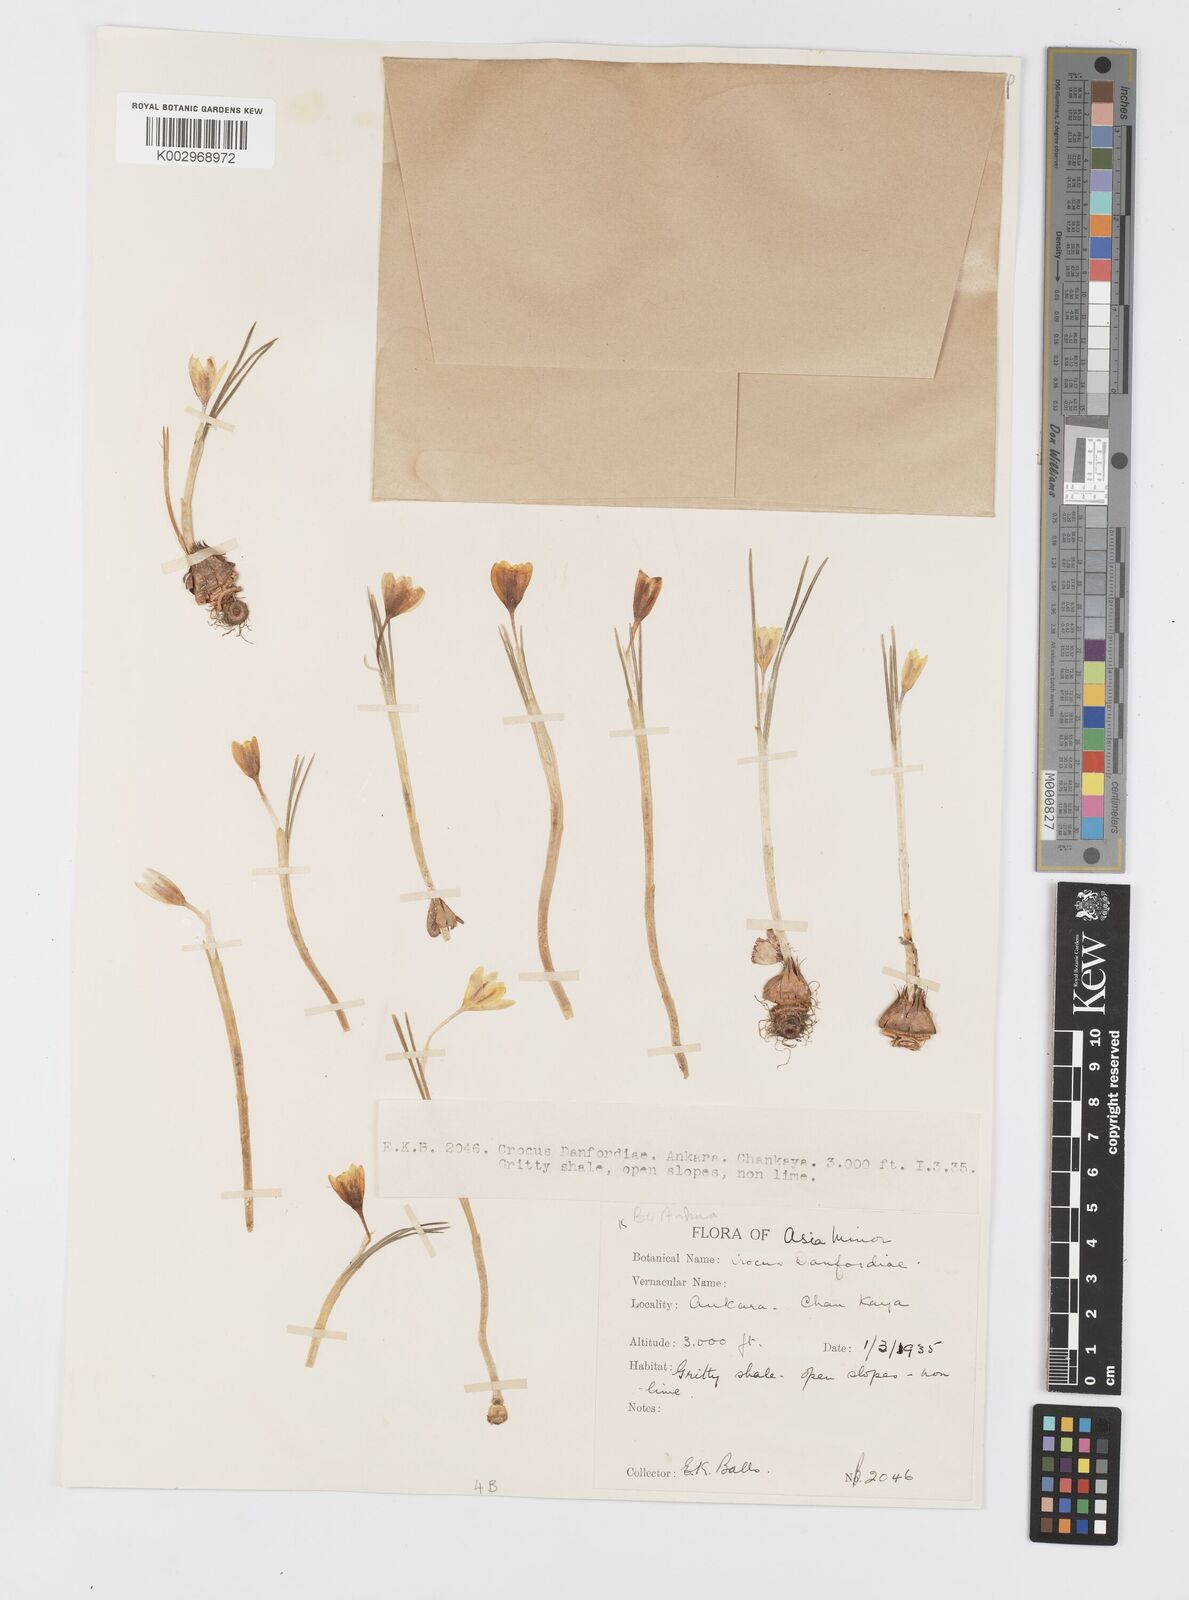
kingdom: Plantae
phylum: Tracheophyta
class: Liliopsida
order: Asparagales
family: Iridaceae
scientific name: Iridaceae
